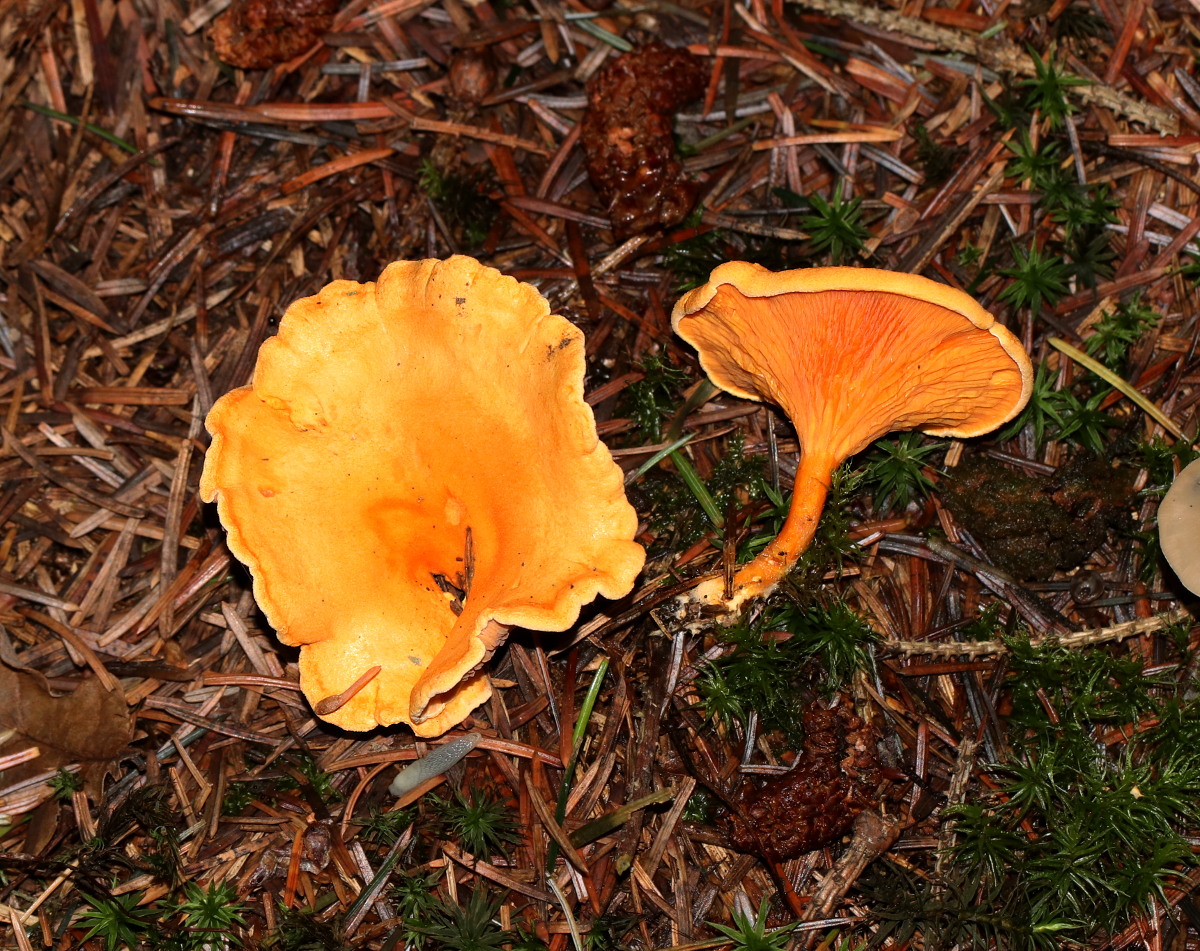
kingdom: Fungi
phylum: Basidiomycota
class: Agaricomycetes
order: Boletales
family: Hygrophoropsidaceae
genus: Hygrophoropsis
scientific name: Hygrophoropsis aurantiaca
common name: almindelig orangekantarel
